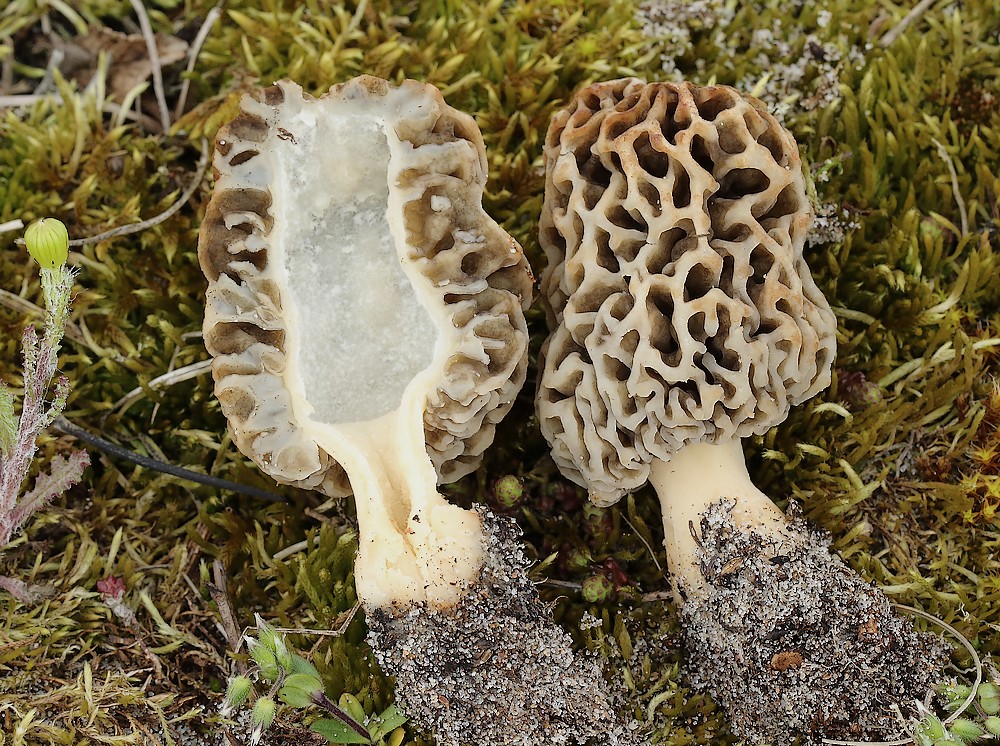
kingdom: Fungi
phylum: Ascomycota
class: Pezizomycetes
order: Pezizales
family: Morchellaceae
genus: Morchella
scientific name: Morchella esculenta
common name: Morel
